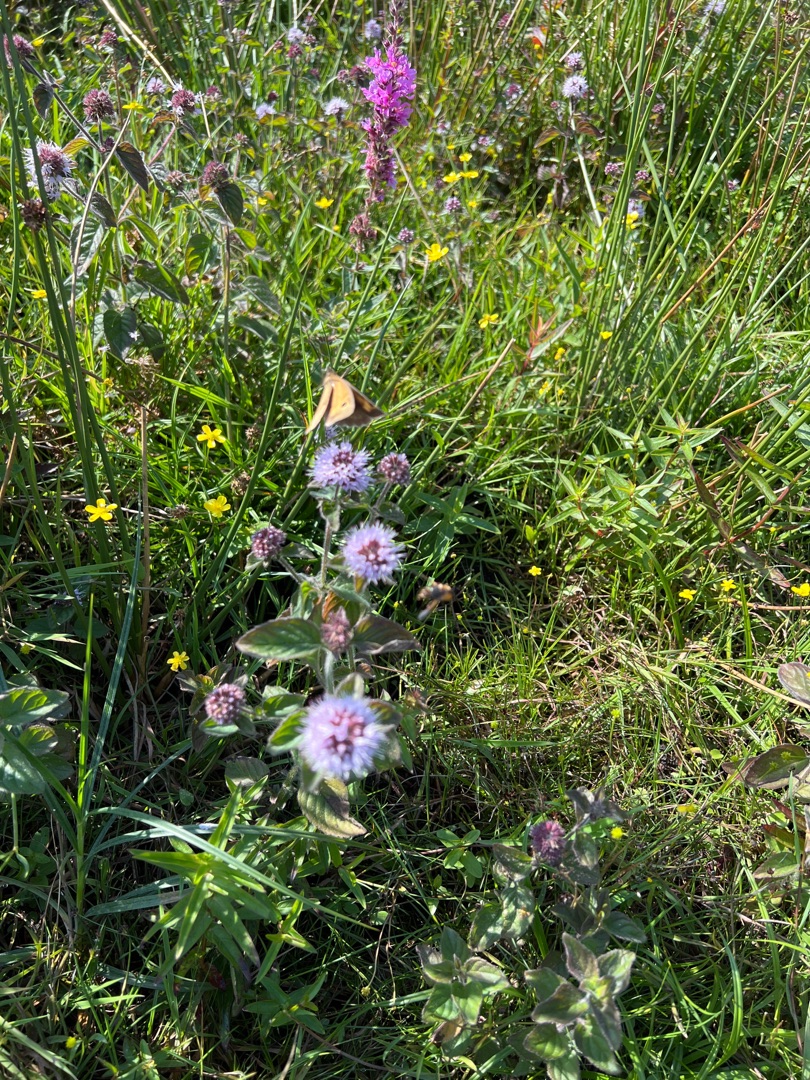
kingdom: Plantae
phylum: Tracheophyta
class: Magnoliopsida
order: Lamiales
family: Lamiaceae
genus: Mentha
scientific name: Mentha aquatica
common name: Vand-mynte
